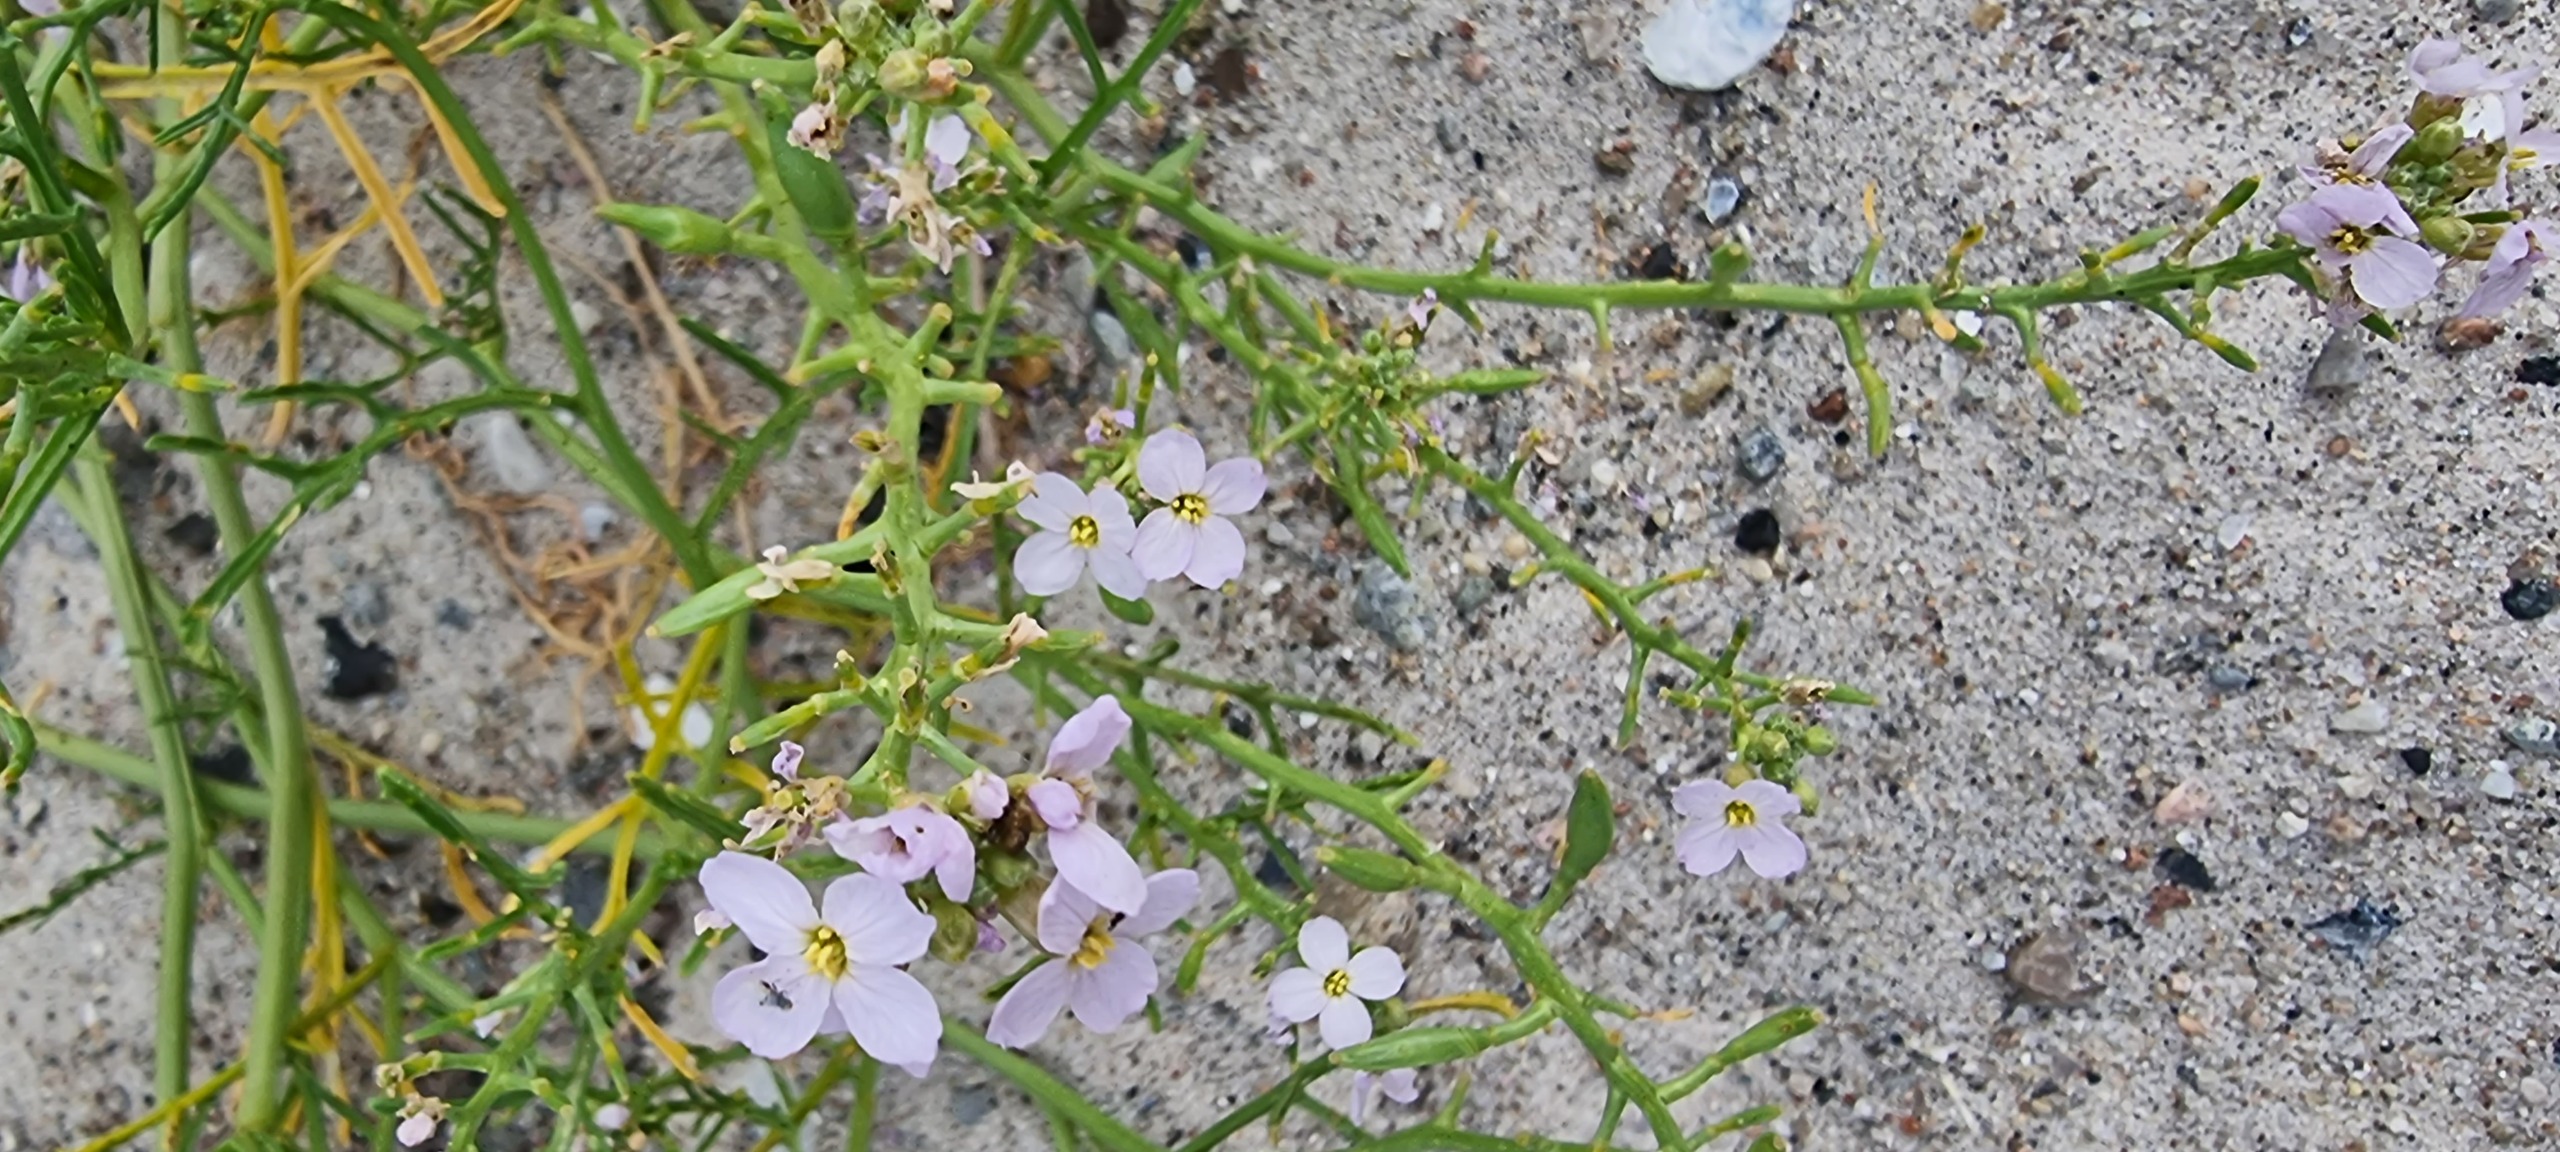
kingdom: Plantae
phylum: Tracheophyta
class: Magnoliopsida
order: Brassicales
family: Brassicaceae
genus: Cakile
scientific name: Cakile maritima
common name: Strandsennep
